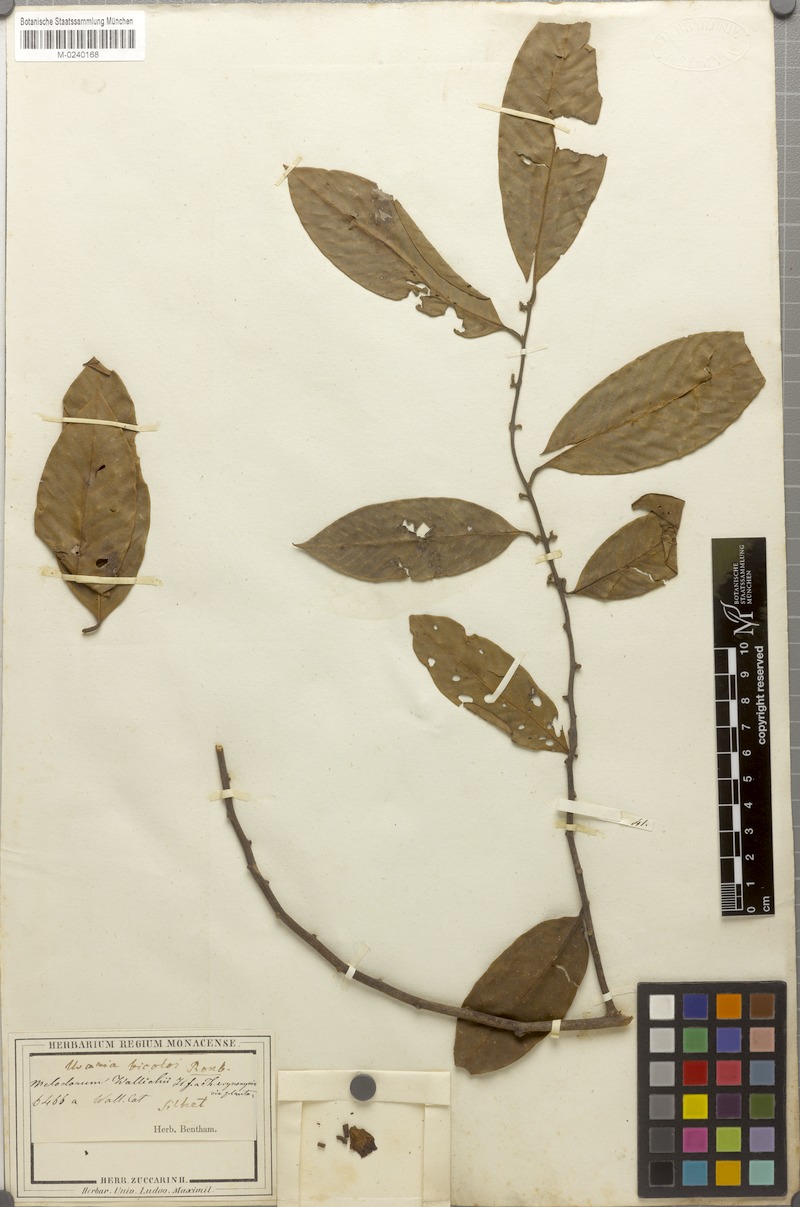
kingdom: Plantae
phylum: Tracheophyta
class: Magnoliopsida
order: Magnoliales
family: Annonaceae
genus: Fissistigma
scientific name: Fissistigma wallichii
